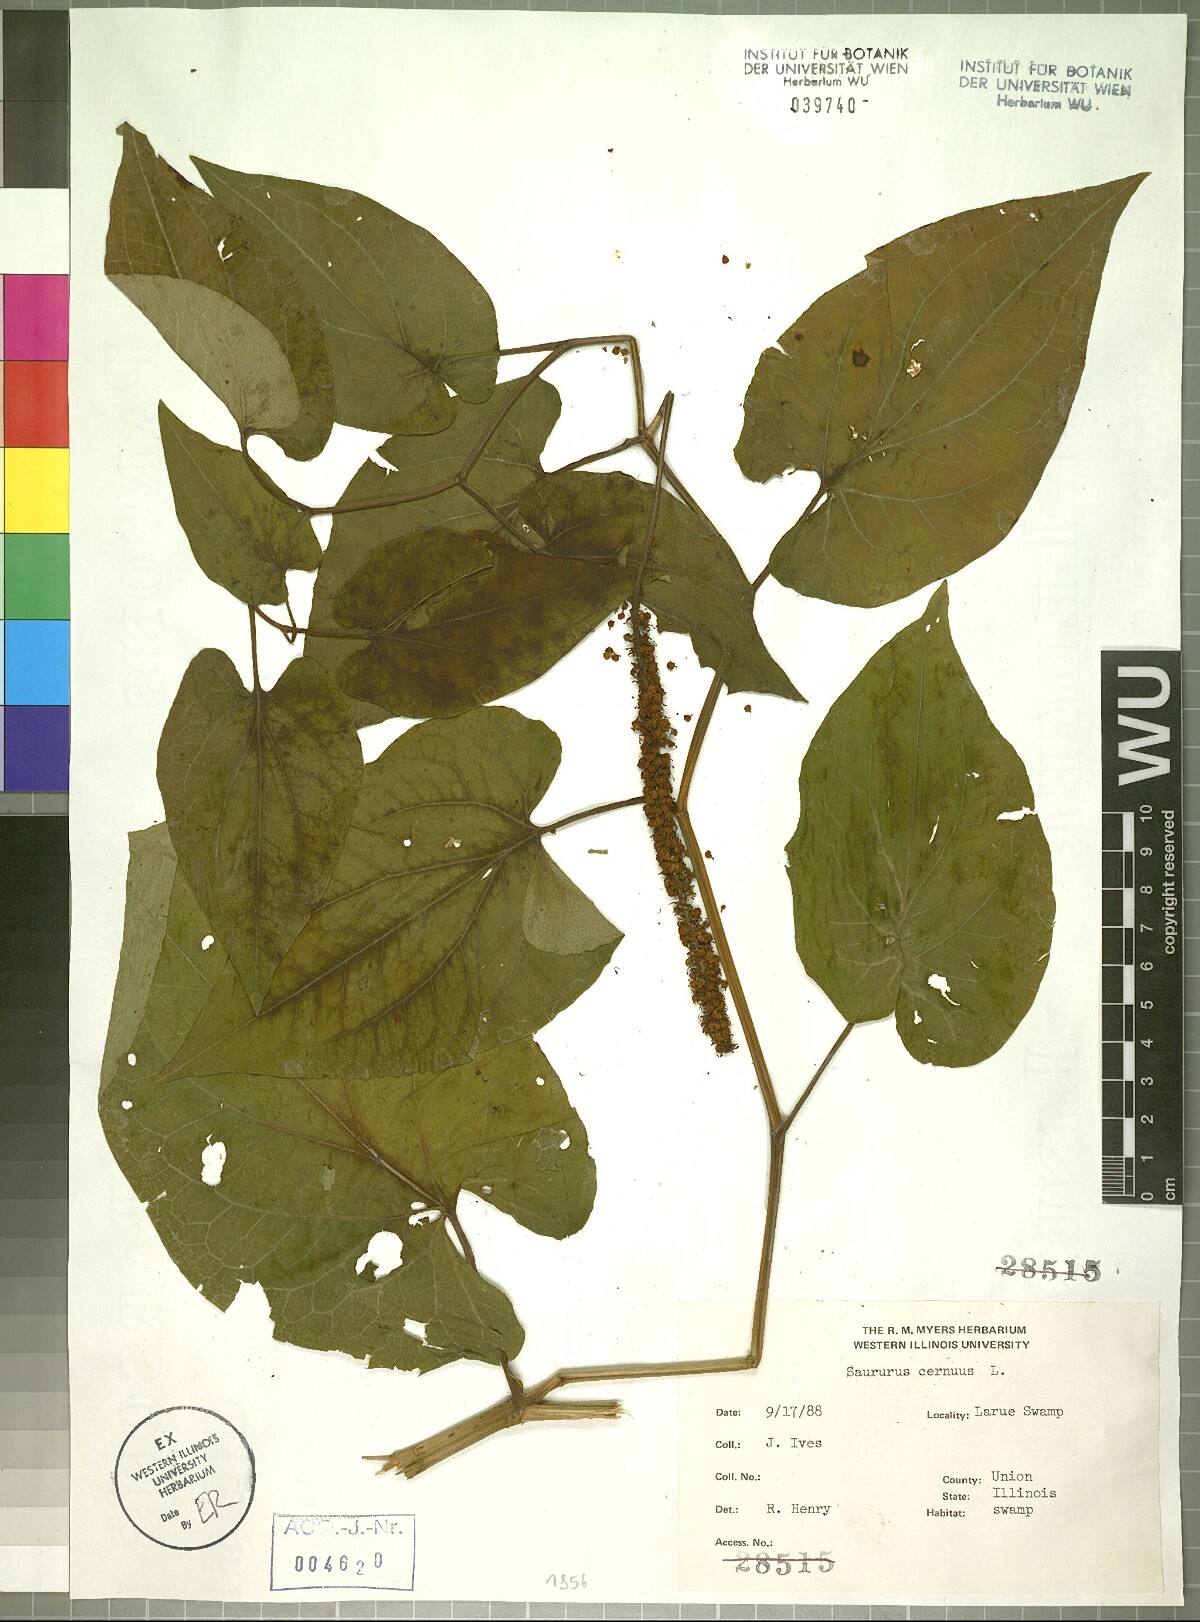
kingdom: Plantae
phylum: Tracheophyta
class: Magnoliopsida
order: Piperales
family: Saururaceae
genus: Saururus
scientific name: Saururus cernuus
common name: Lizard's-tail
